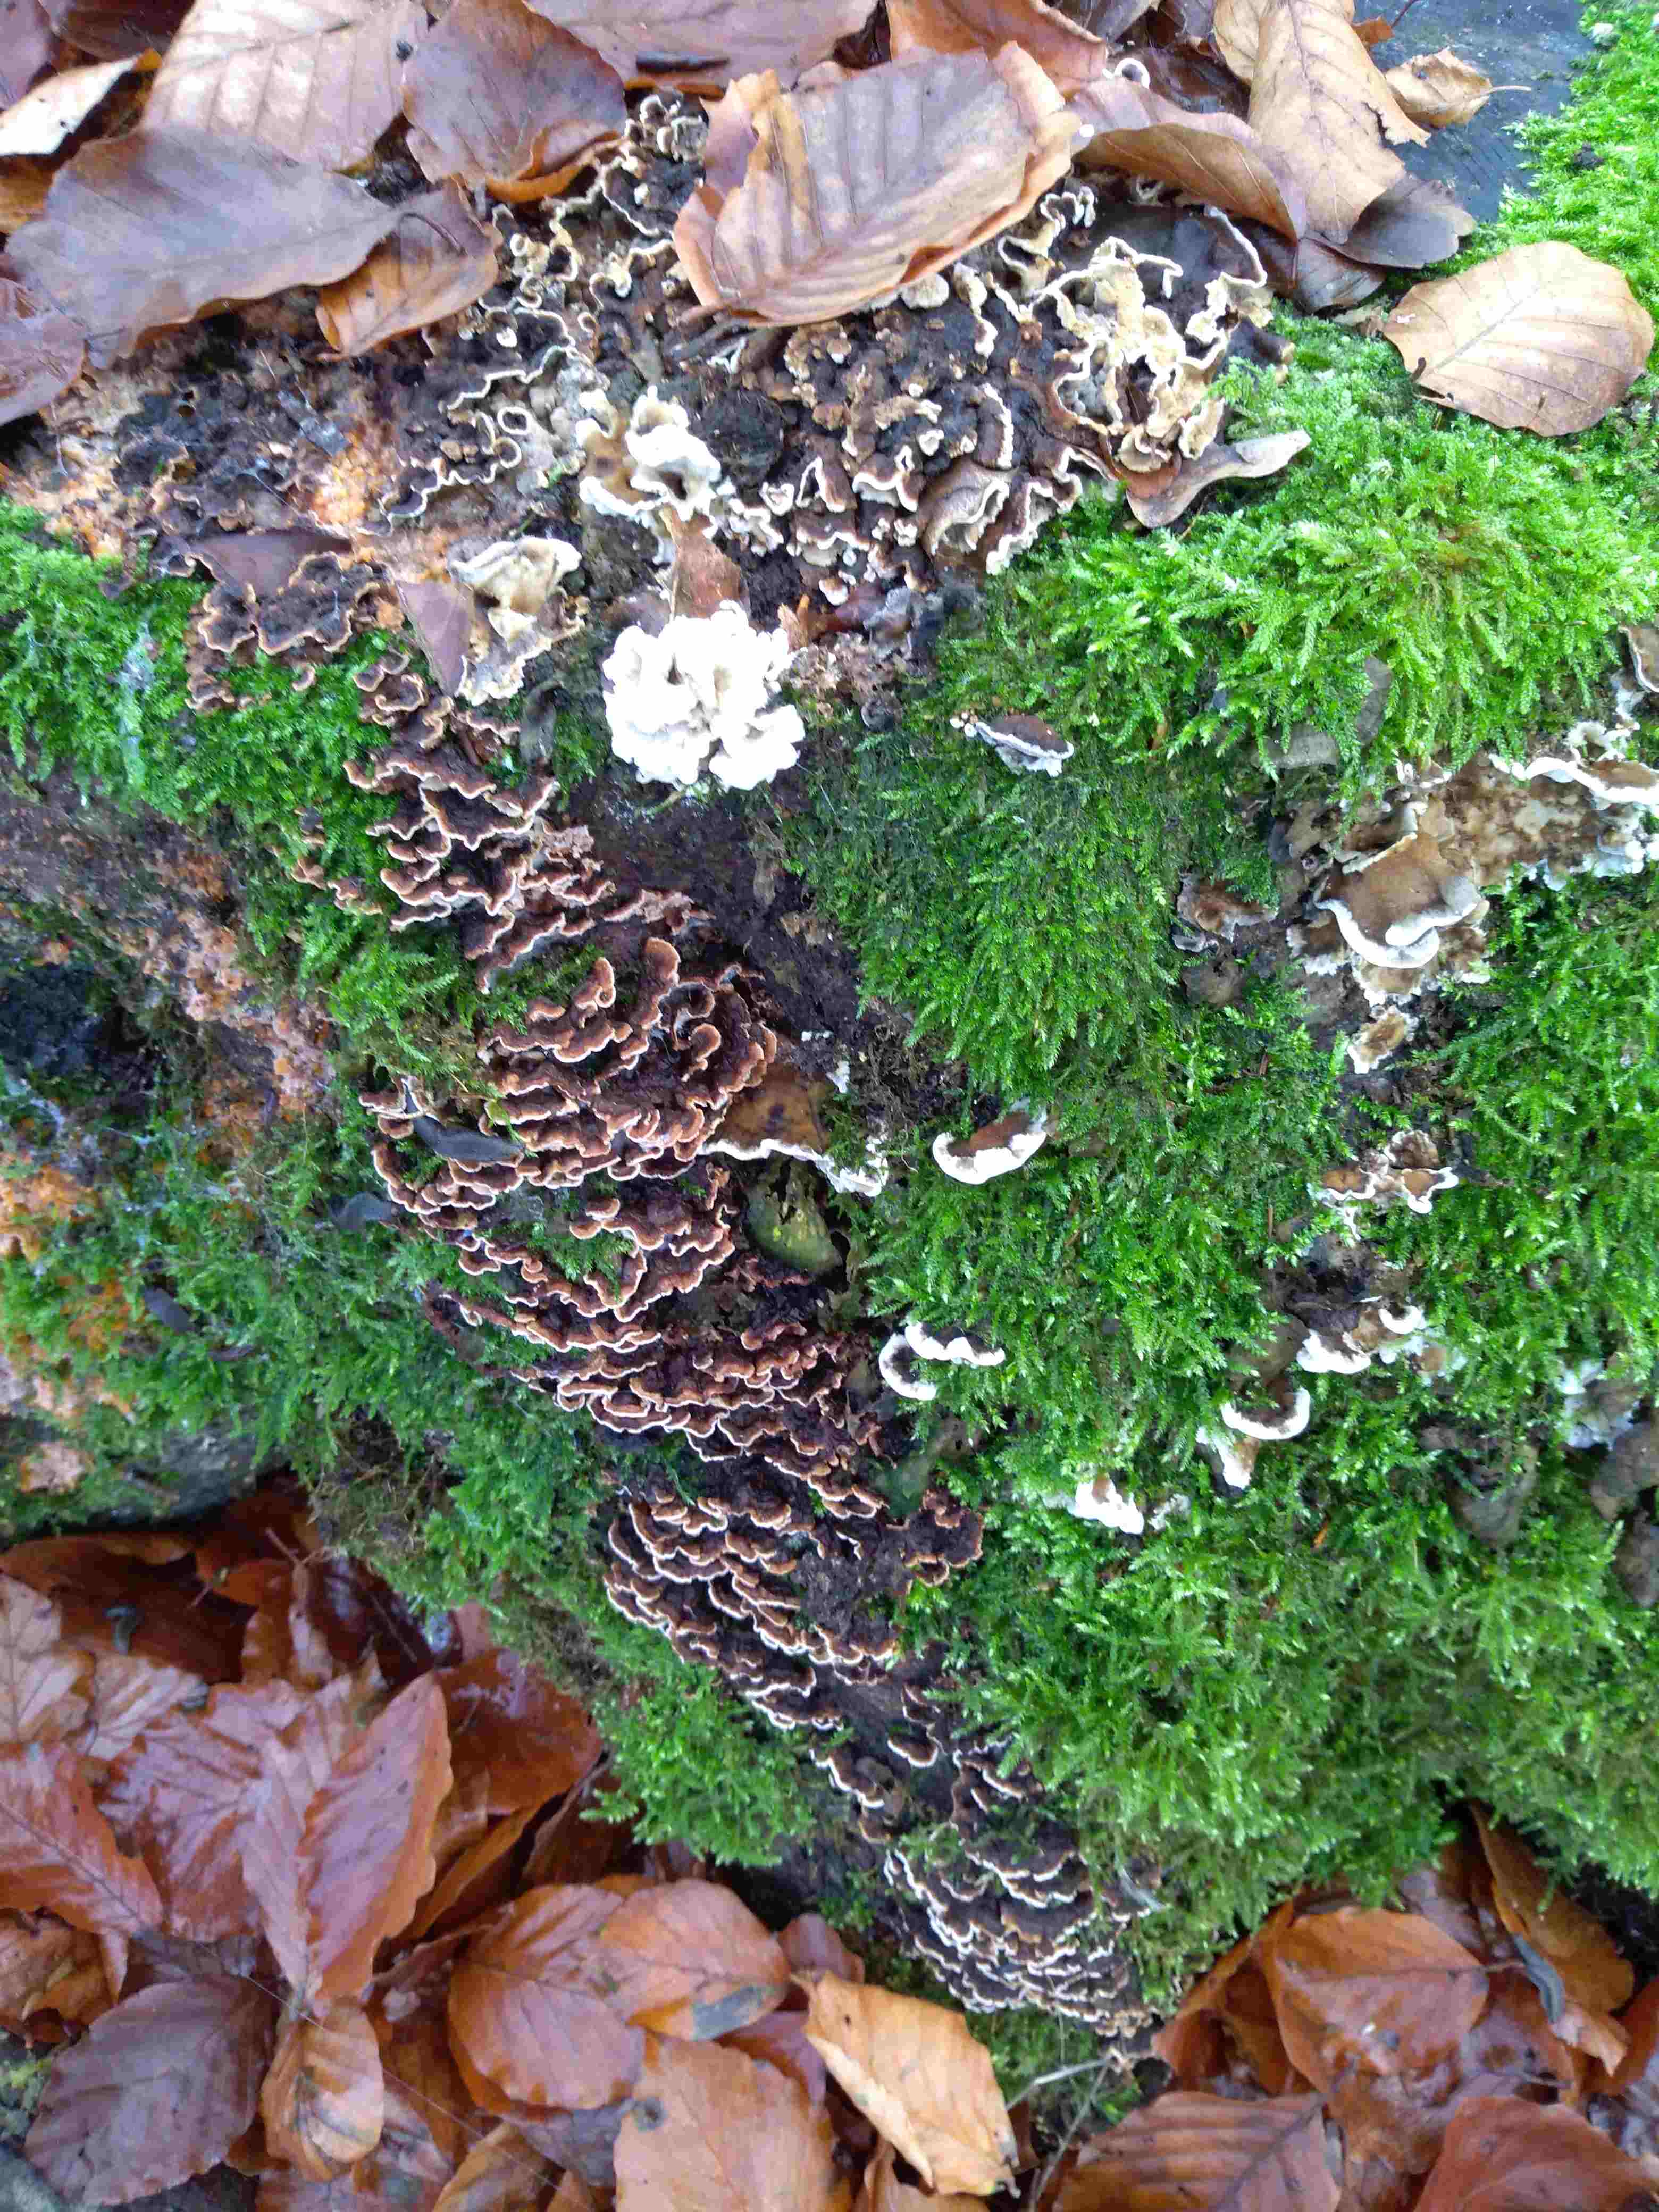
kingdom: Fungi
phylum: Basidiomycota
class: Agaricomycetes
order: Polyporales
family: Polyporaceae
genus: Trametes
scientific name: Trametes versicolor
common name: broget læderporesvamp
